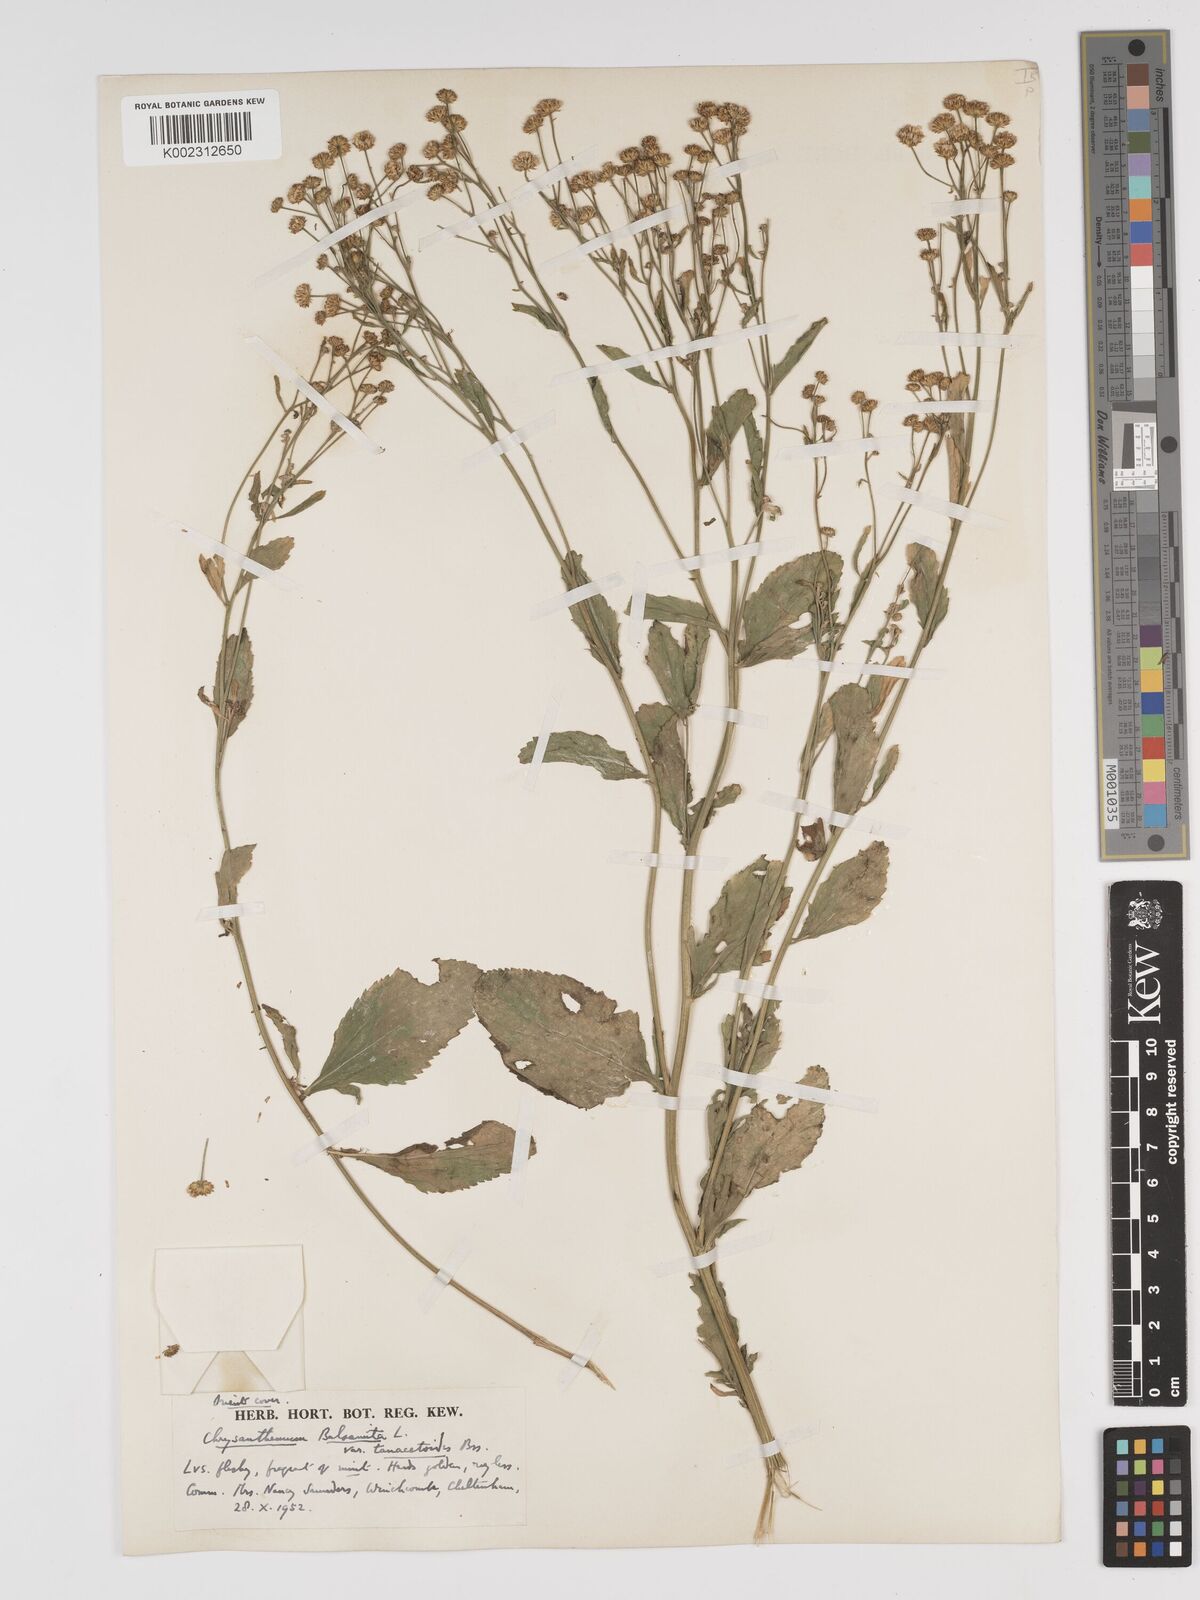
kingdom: Plantae
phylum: Tracheophyta
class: Magnoliopsida
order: Asterales
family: Asteraceae
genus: Tanacetum
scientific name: Tanacetum balsamita
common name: Costmary
